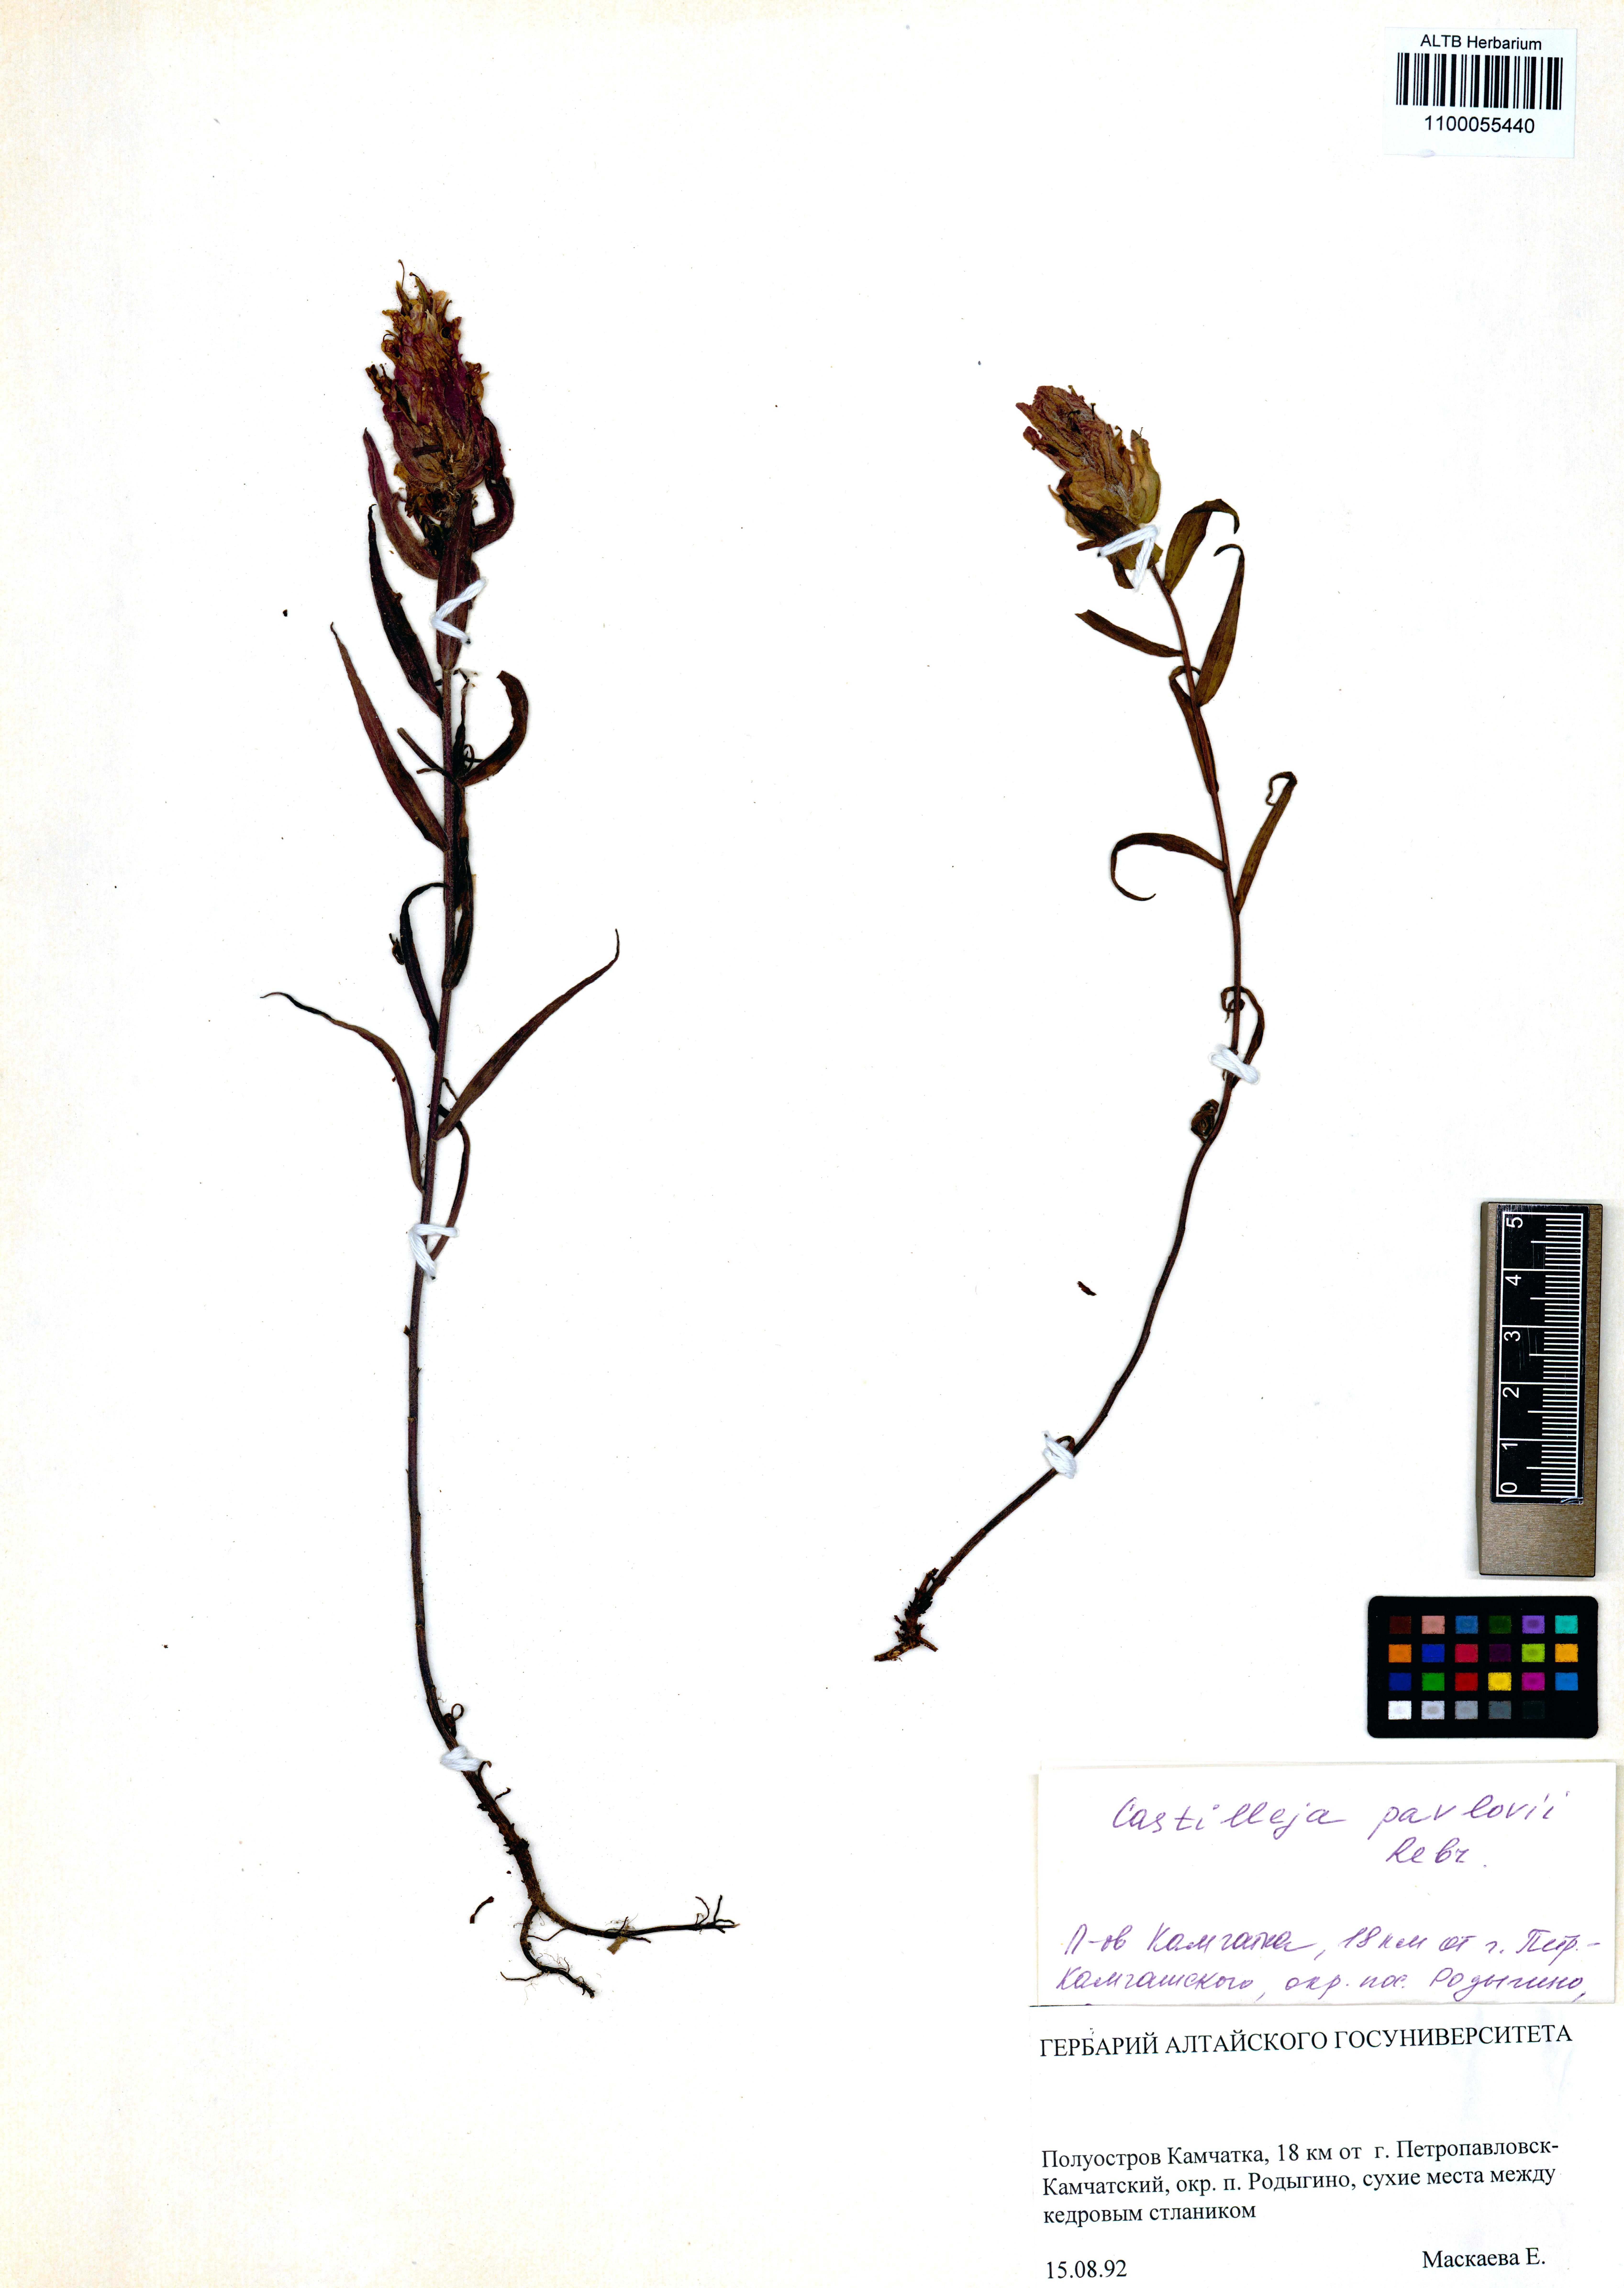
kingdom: Plantae
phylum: Tracheophyta
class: Magnoliopsida
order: Lamiales
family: Orobanchaceae
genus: Castilleja
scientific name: Castilleja pavlovii
